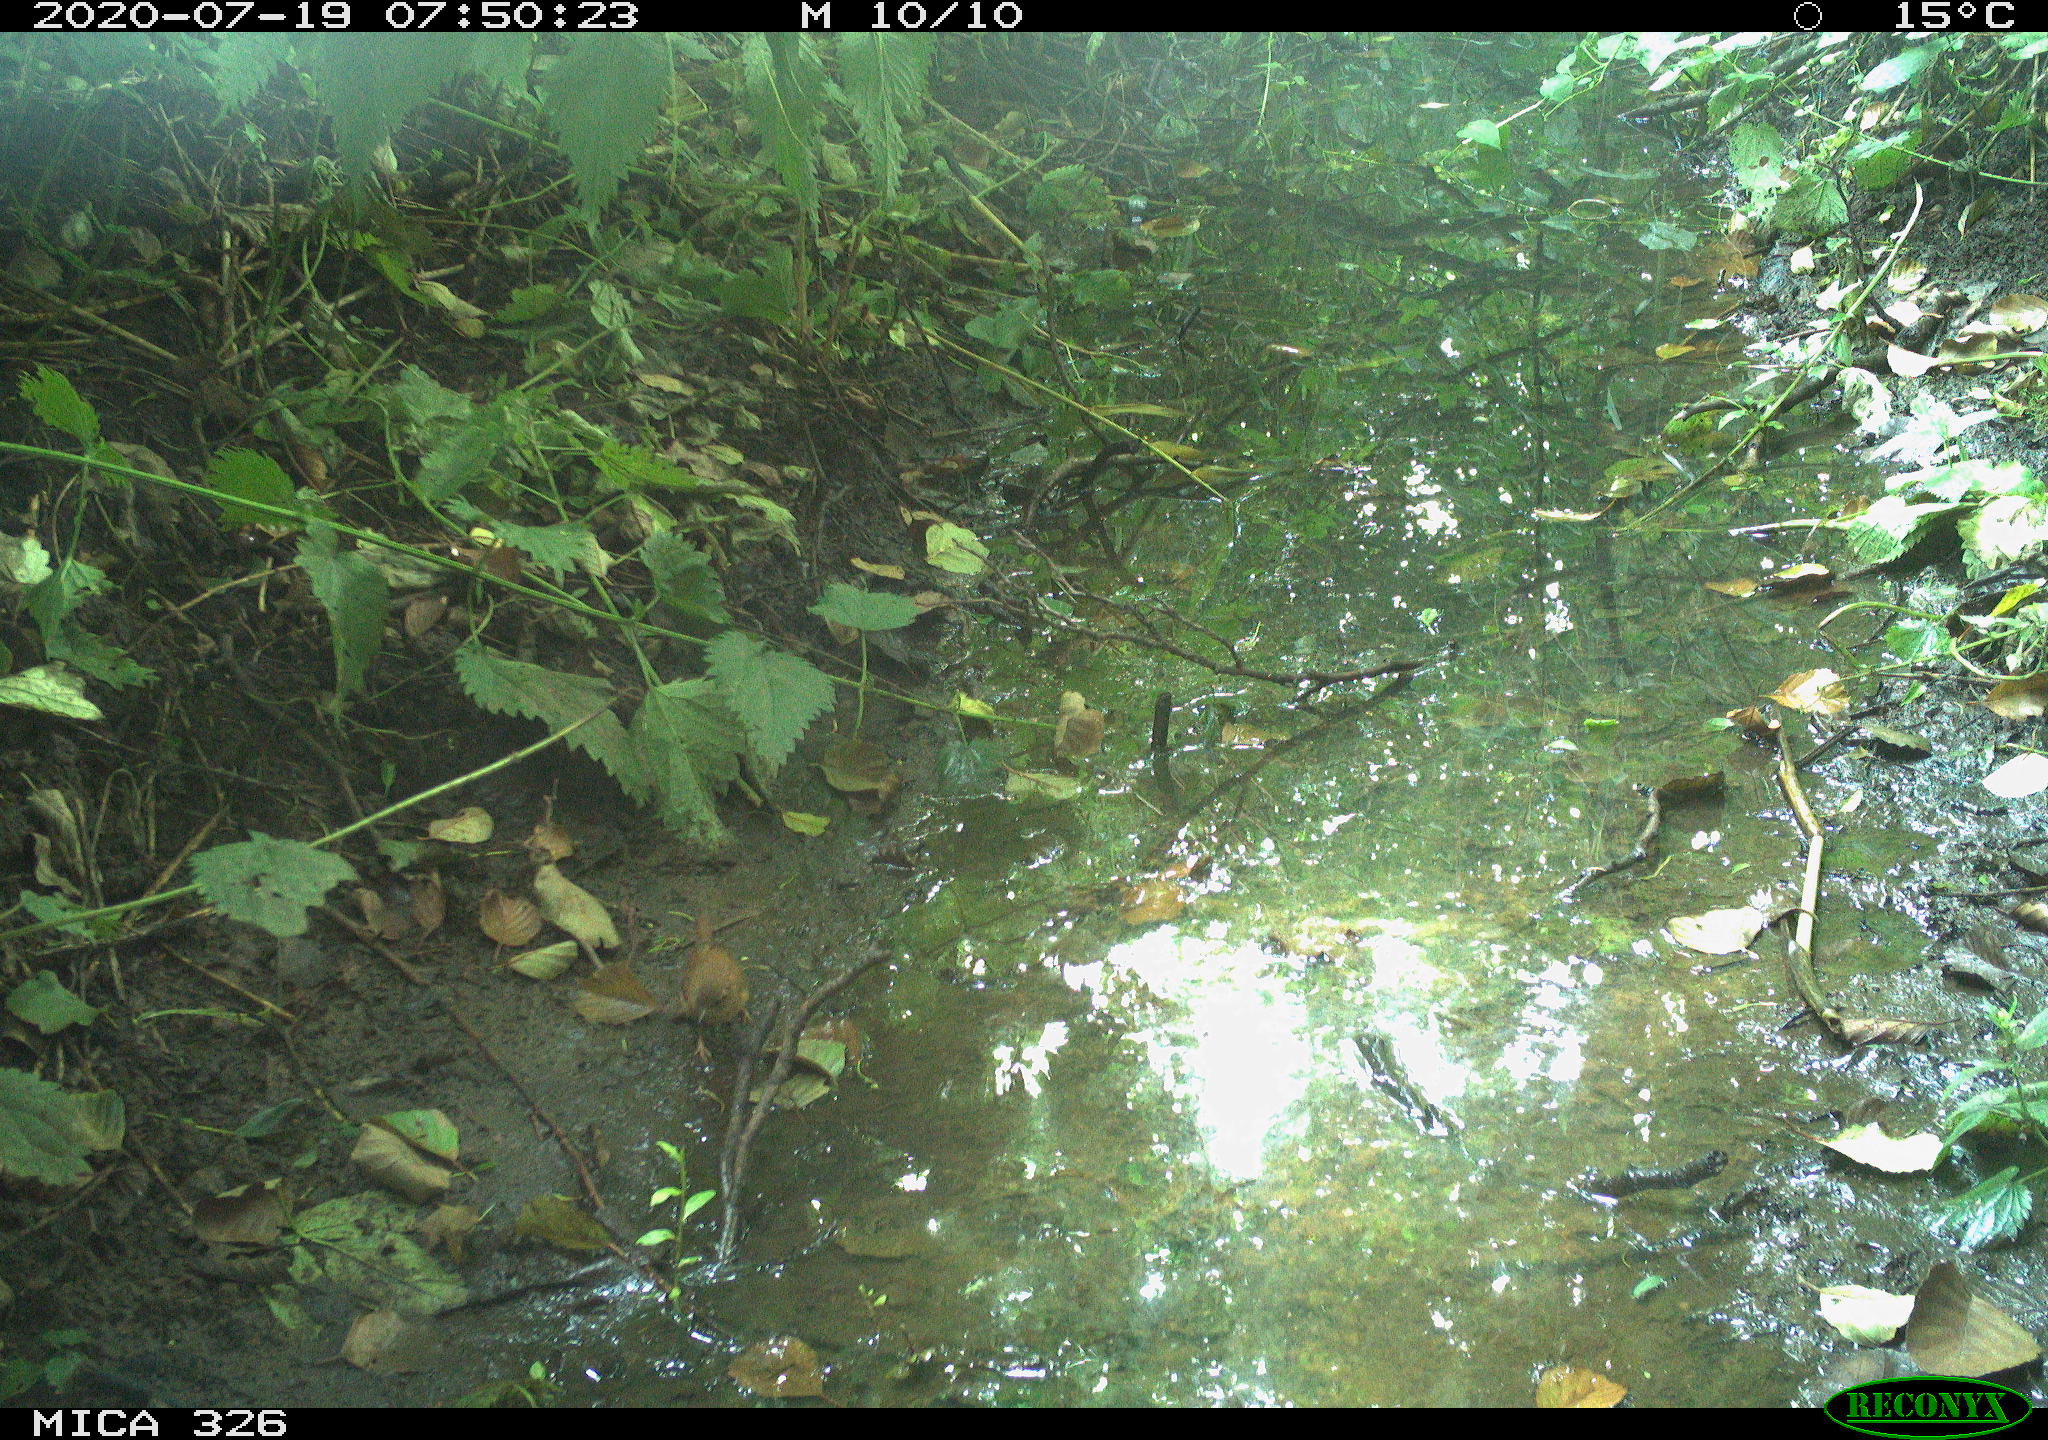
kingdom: Animalia
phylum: Chordata
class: Aves
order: Passeriformes
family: Troglodytidae
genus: Troglodytes
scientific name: Troglodytes troglodytes
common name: Eurasian wren
